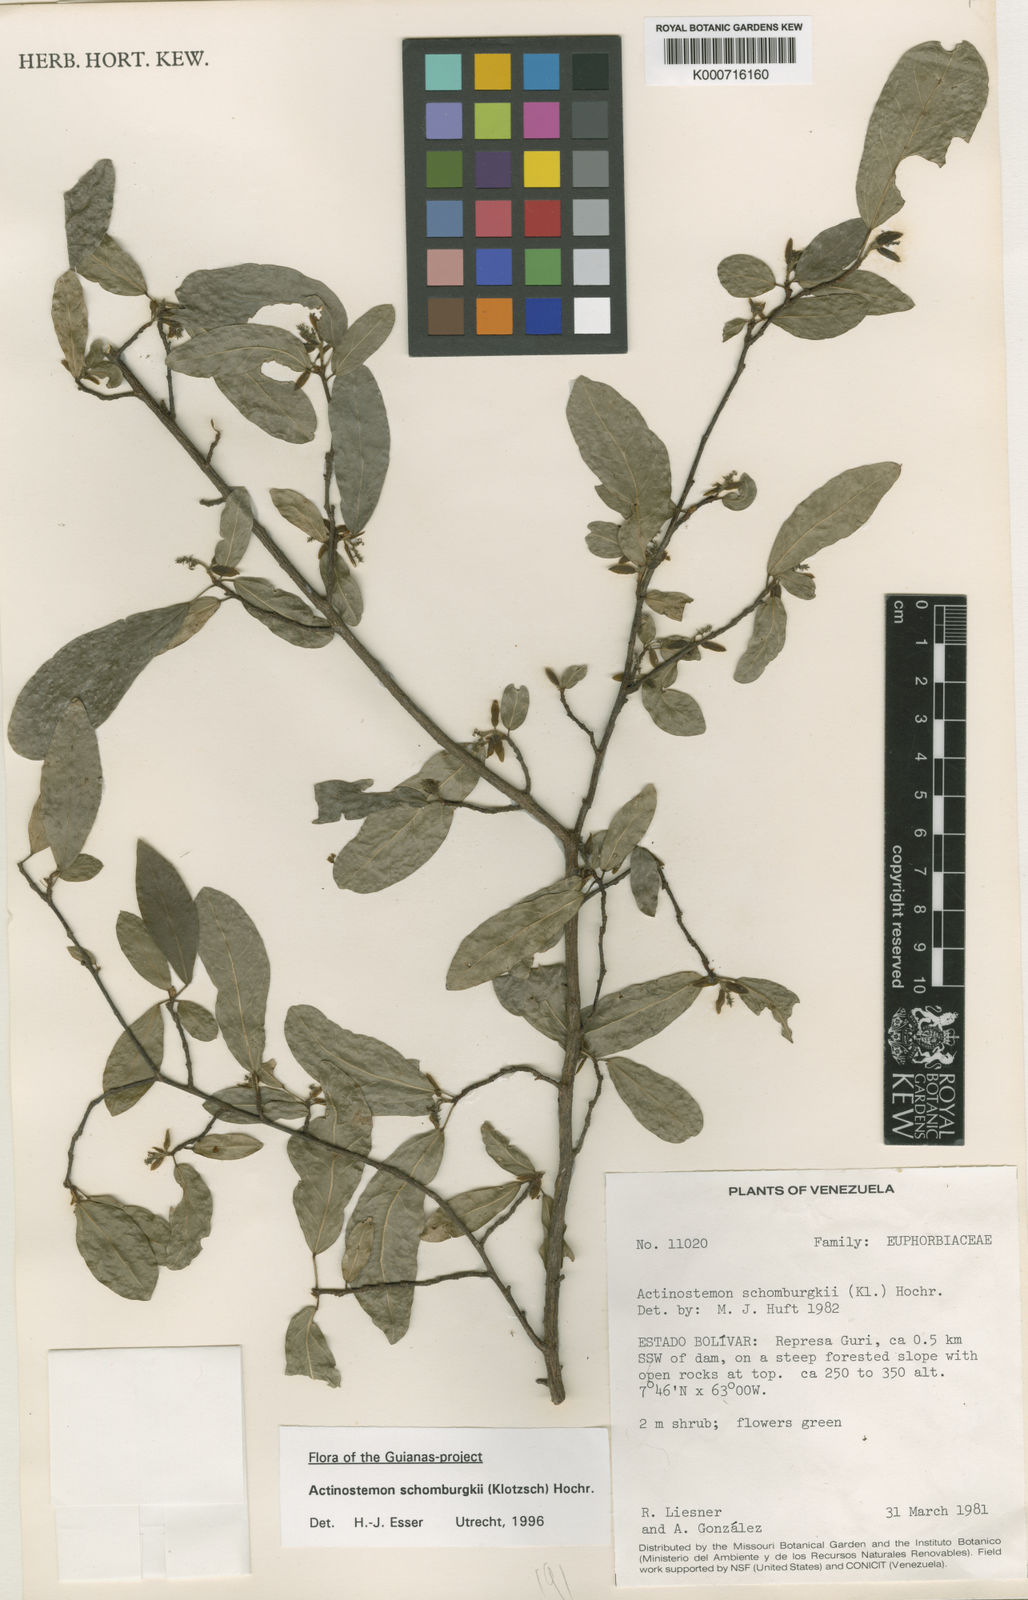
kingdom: Plantae
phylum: Tracheophyta
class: Magnoliopsida
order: Malpighiales
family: Euphorbiaceae
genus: Actinostemon
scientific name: Actinostemon schomburgkii
